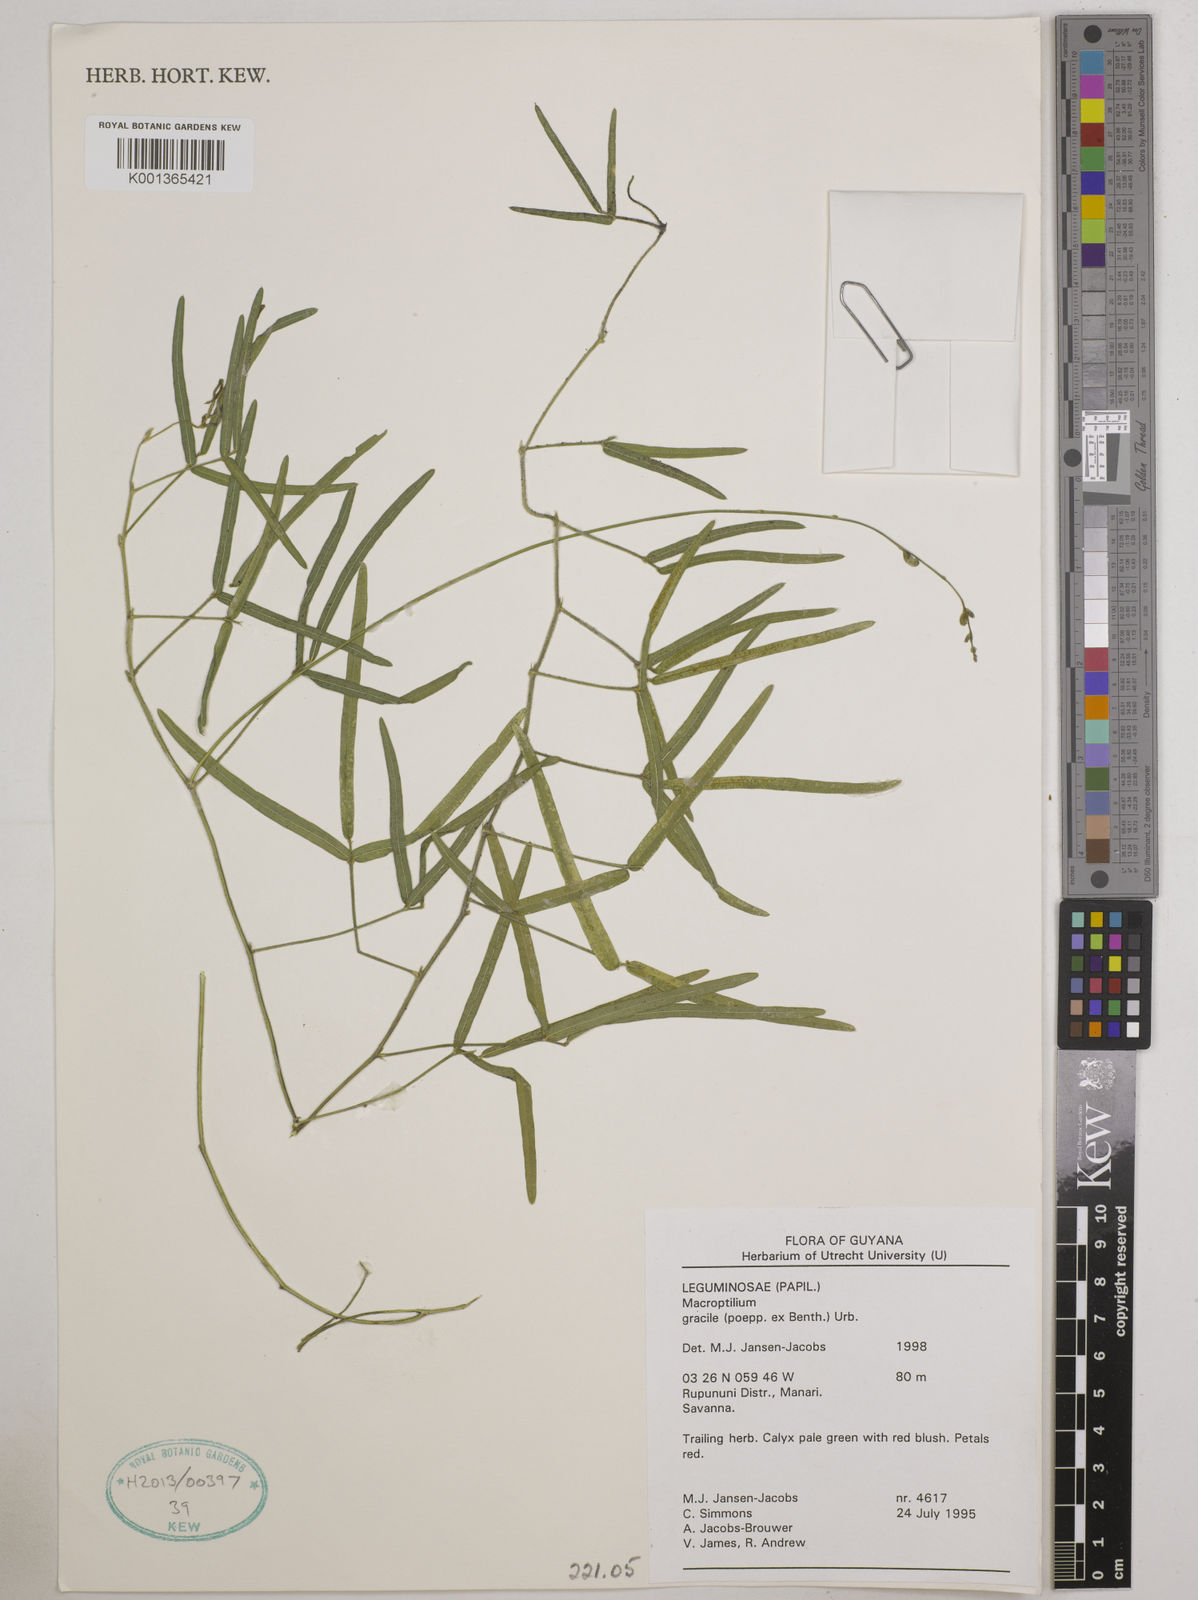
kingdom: Plantae
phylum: Tracheophyta
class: Magnoliopsida
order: Fabales
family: Fabaceae
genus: Macroptilium
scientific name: Macroptilium gracile
